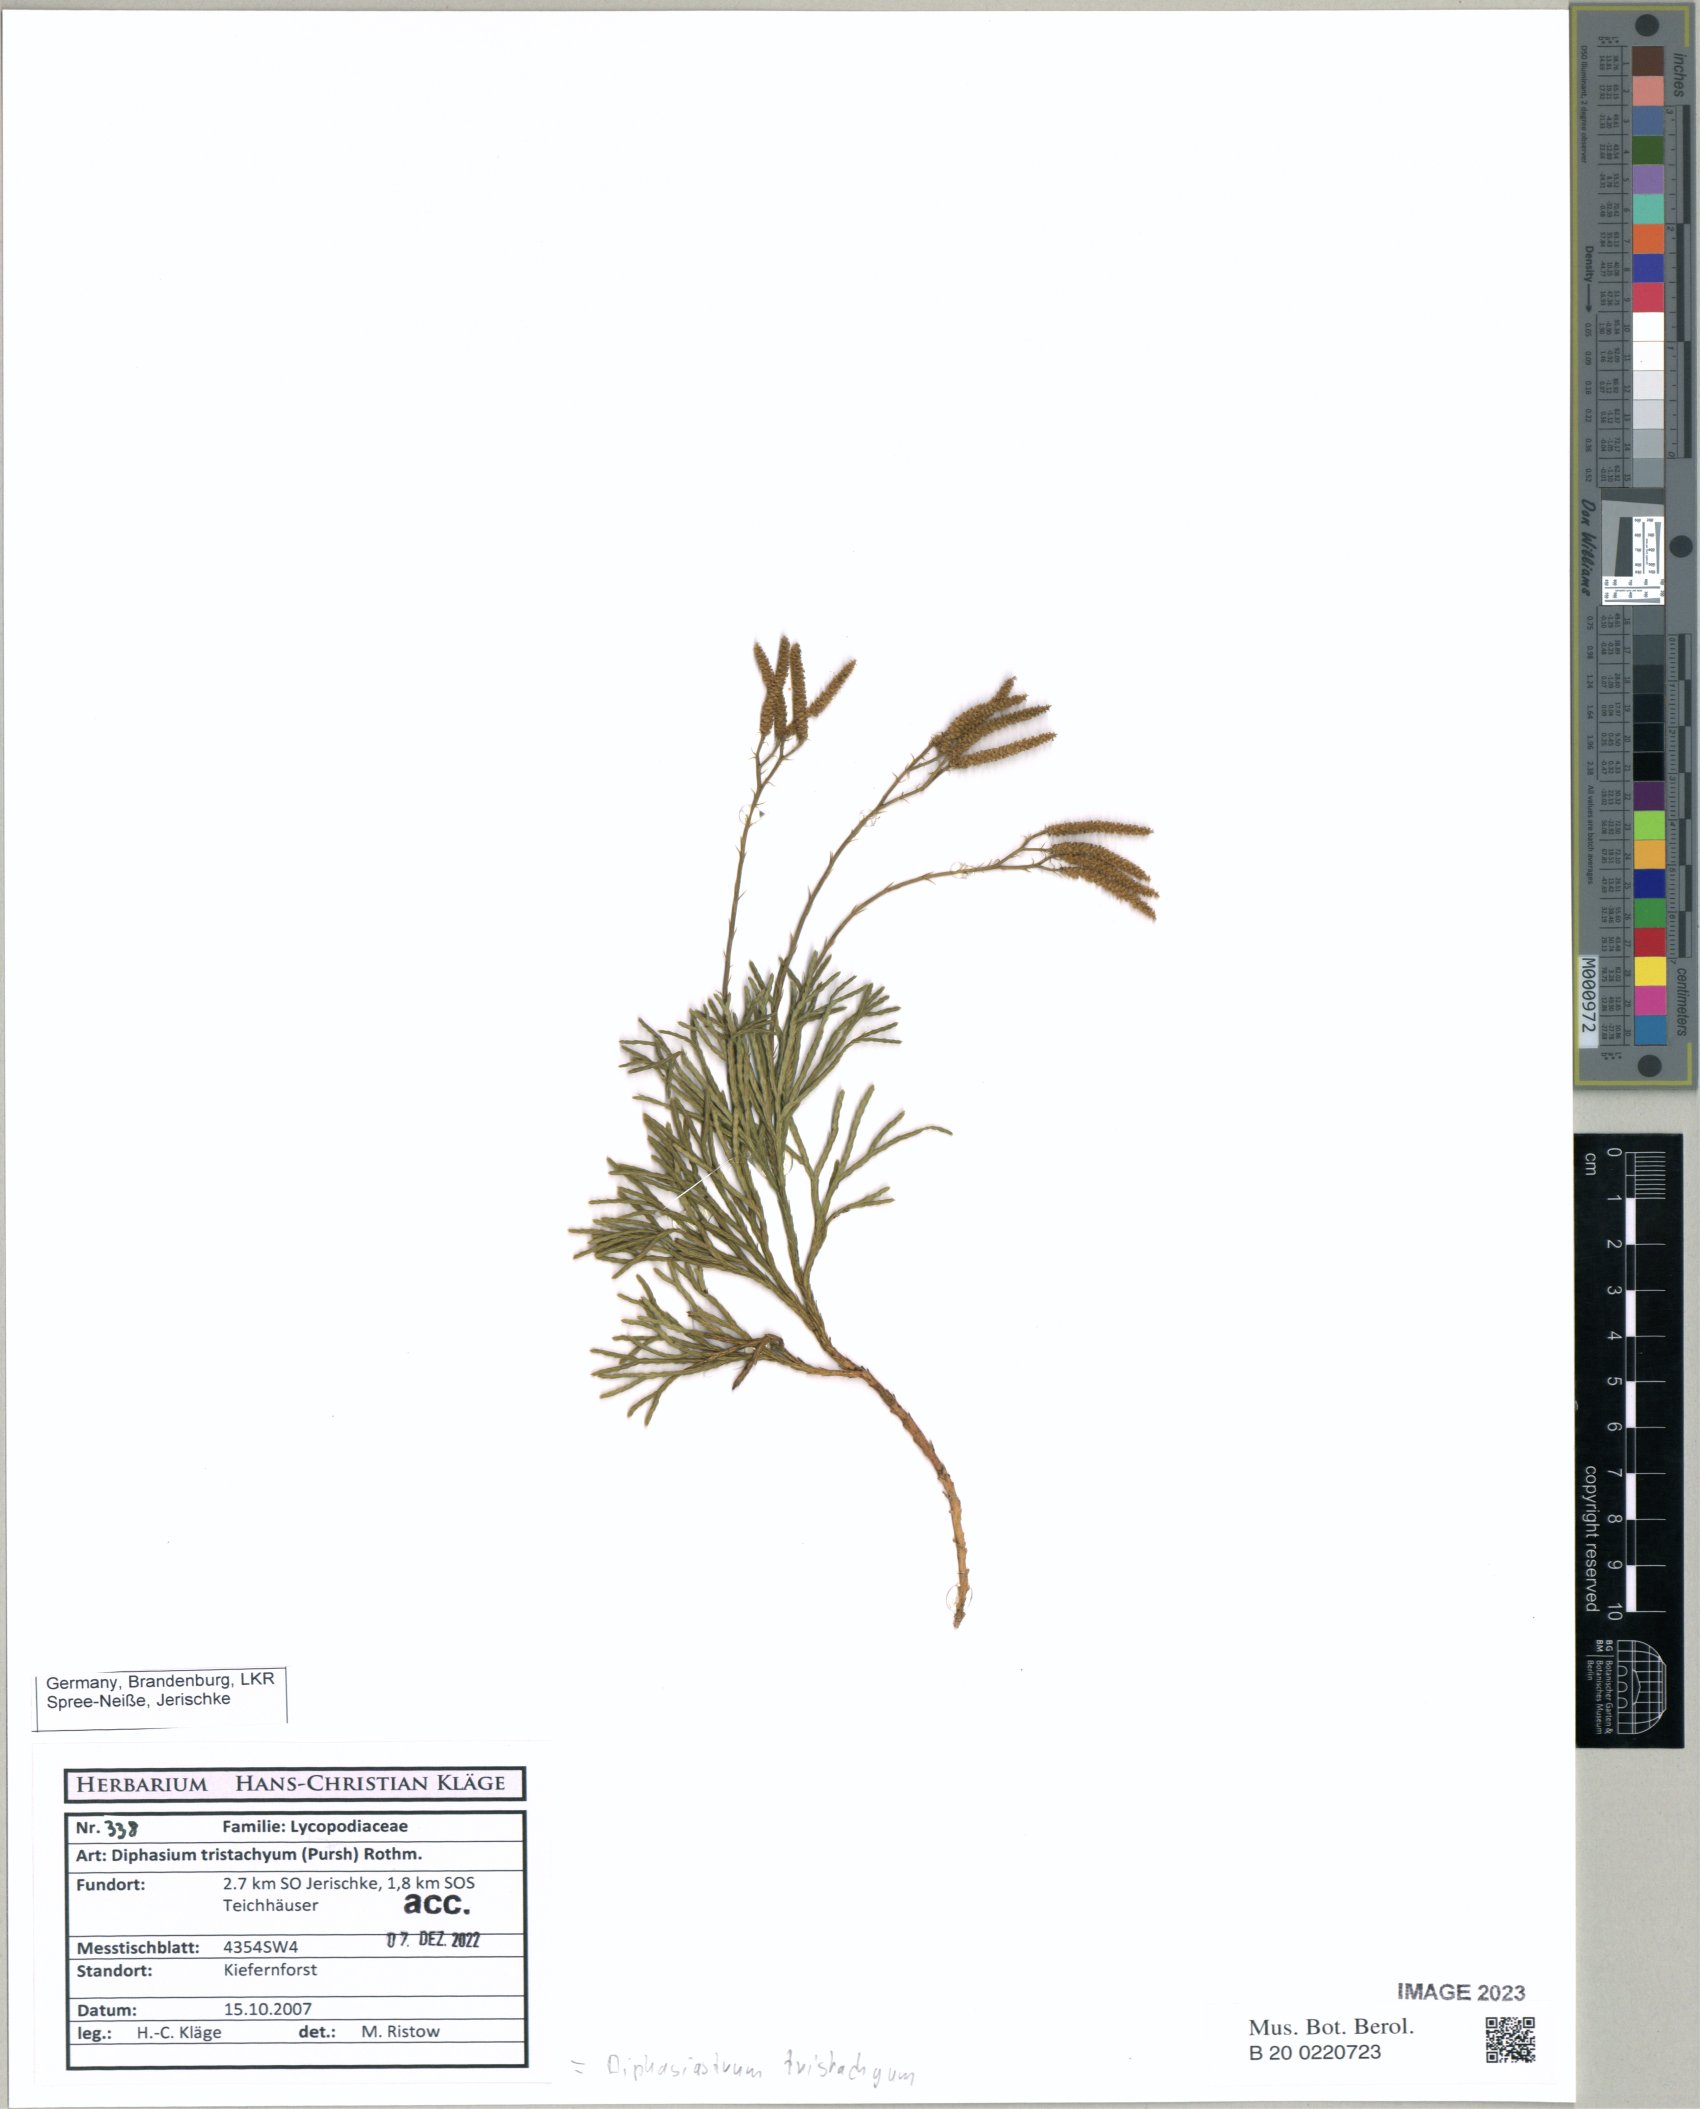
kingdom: Plantae
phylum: Tracheophyta
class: Lycopodiopsida
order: Lycopodiales
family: Lycopodiaceae
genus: Diphasiastrum
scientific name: Diphasiastrum tristachyum
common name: Blue ground-cedar
